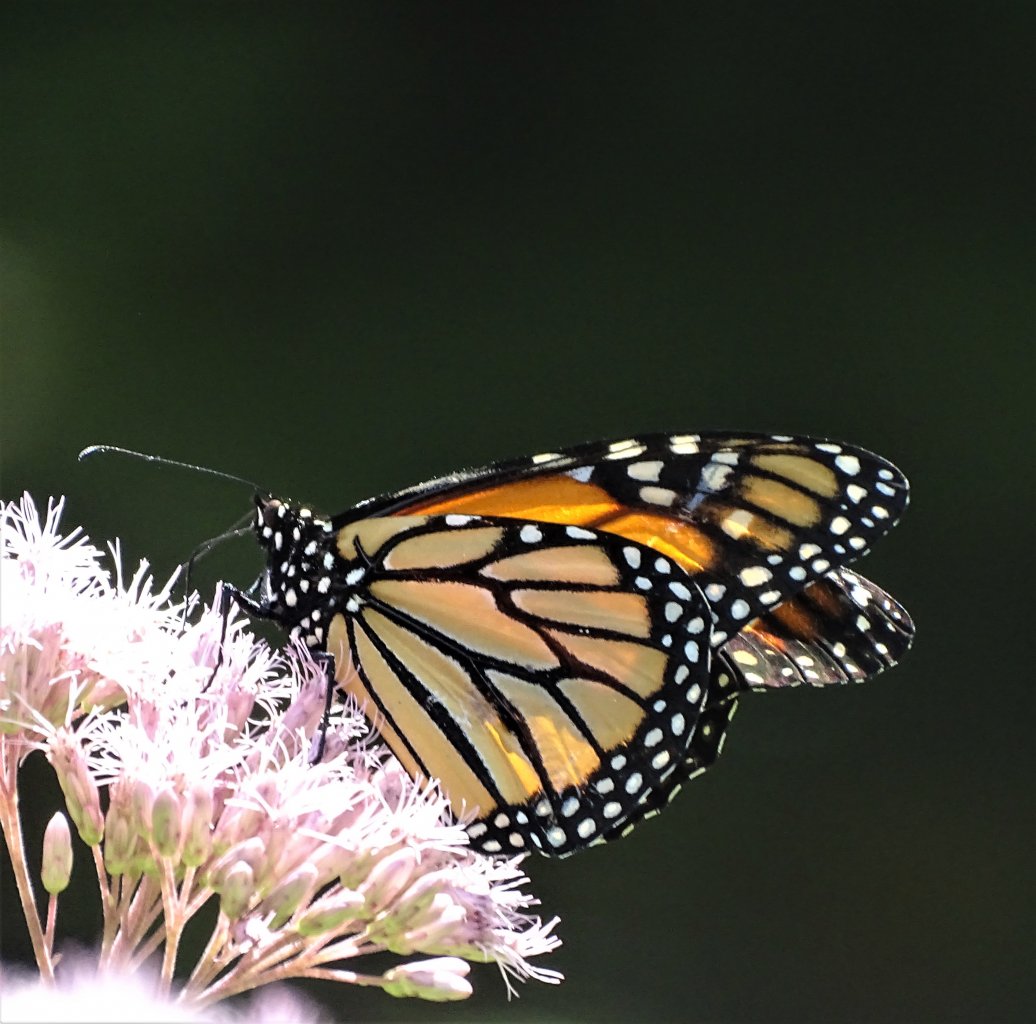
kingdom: Animalia
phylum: Arthropoda
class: Insecta
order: Lepidoptera
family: Nymphalidae
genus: Danaus
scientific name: Danaus plexippus
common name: Monarch
